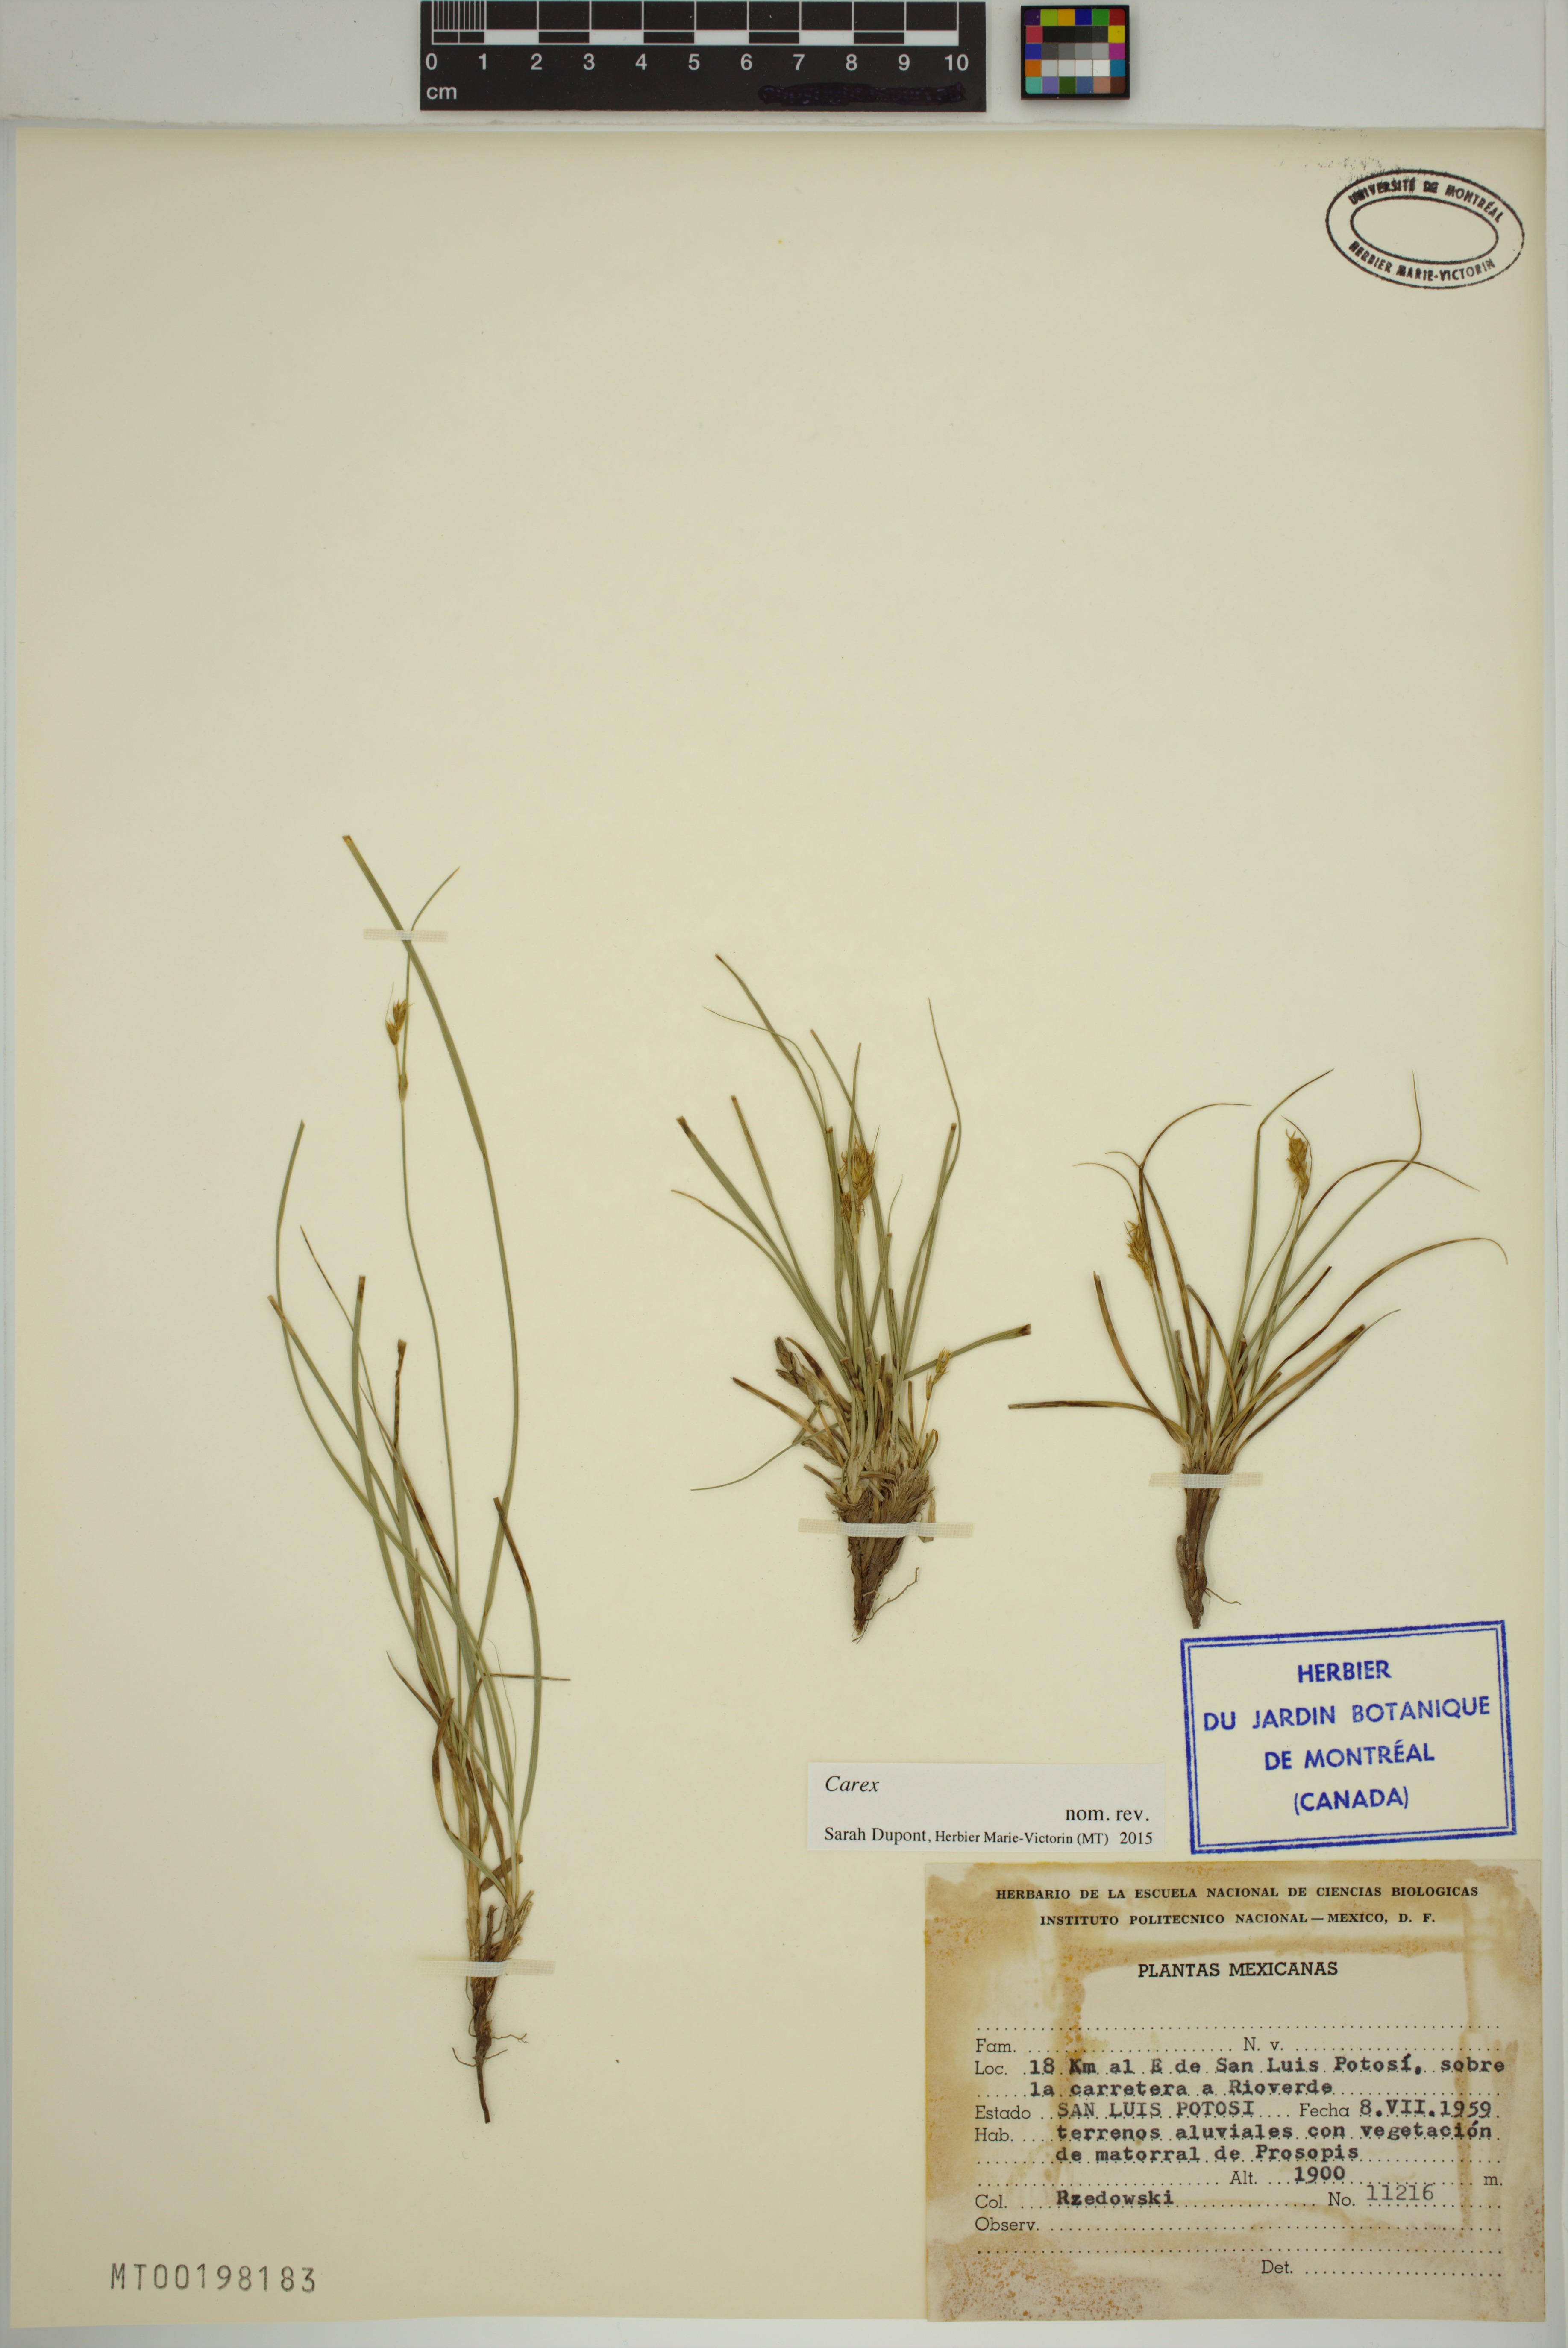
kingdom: Plantae
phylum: Tracheophyta
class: Liliopsida
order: Poales
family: Cyperaceae
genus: Carex
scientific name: Carex
